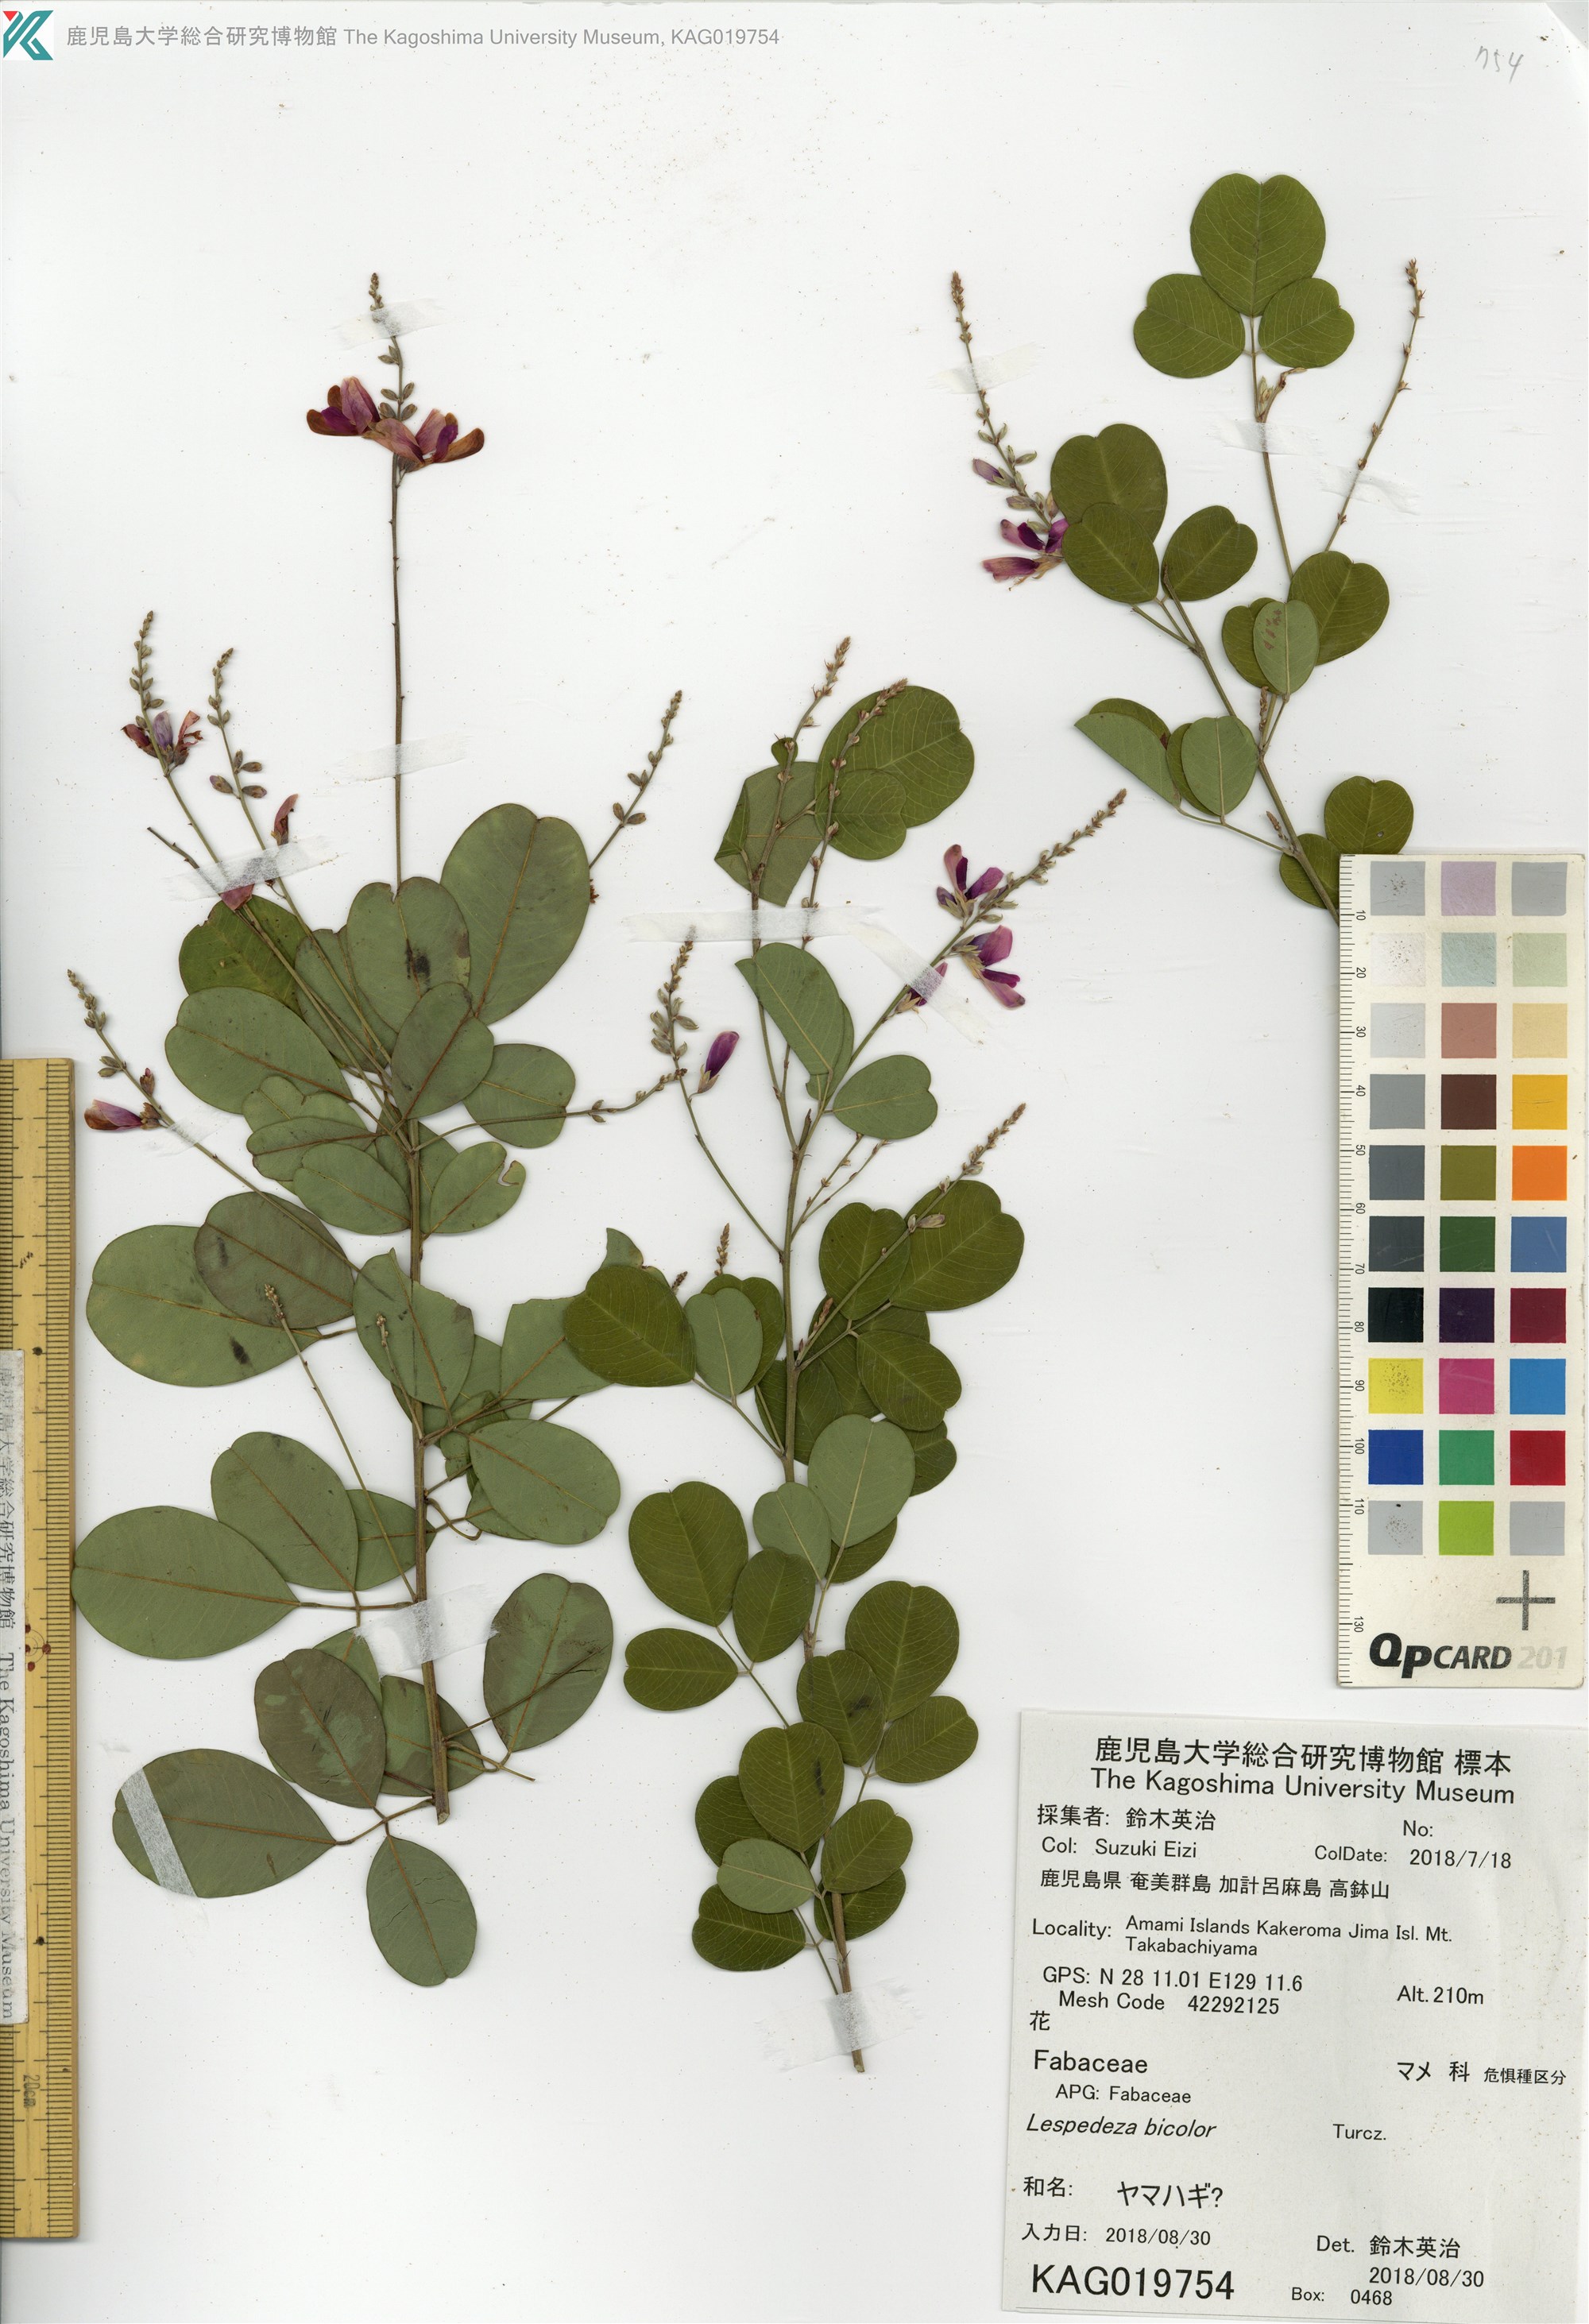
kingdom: Plantae
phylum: Tracheophyta
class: Magnoliopsida
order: Fabales
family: Fabaceae
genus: Lespedeza
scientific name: Lespedeza
